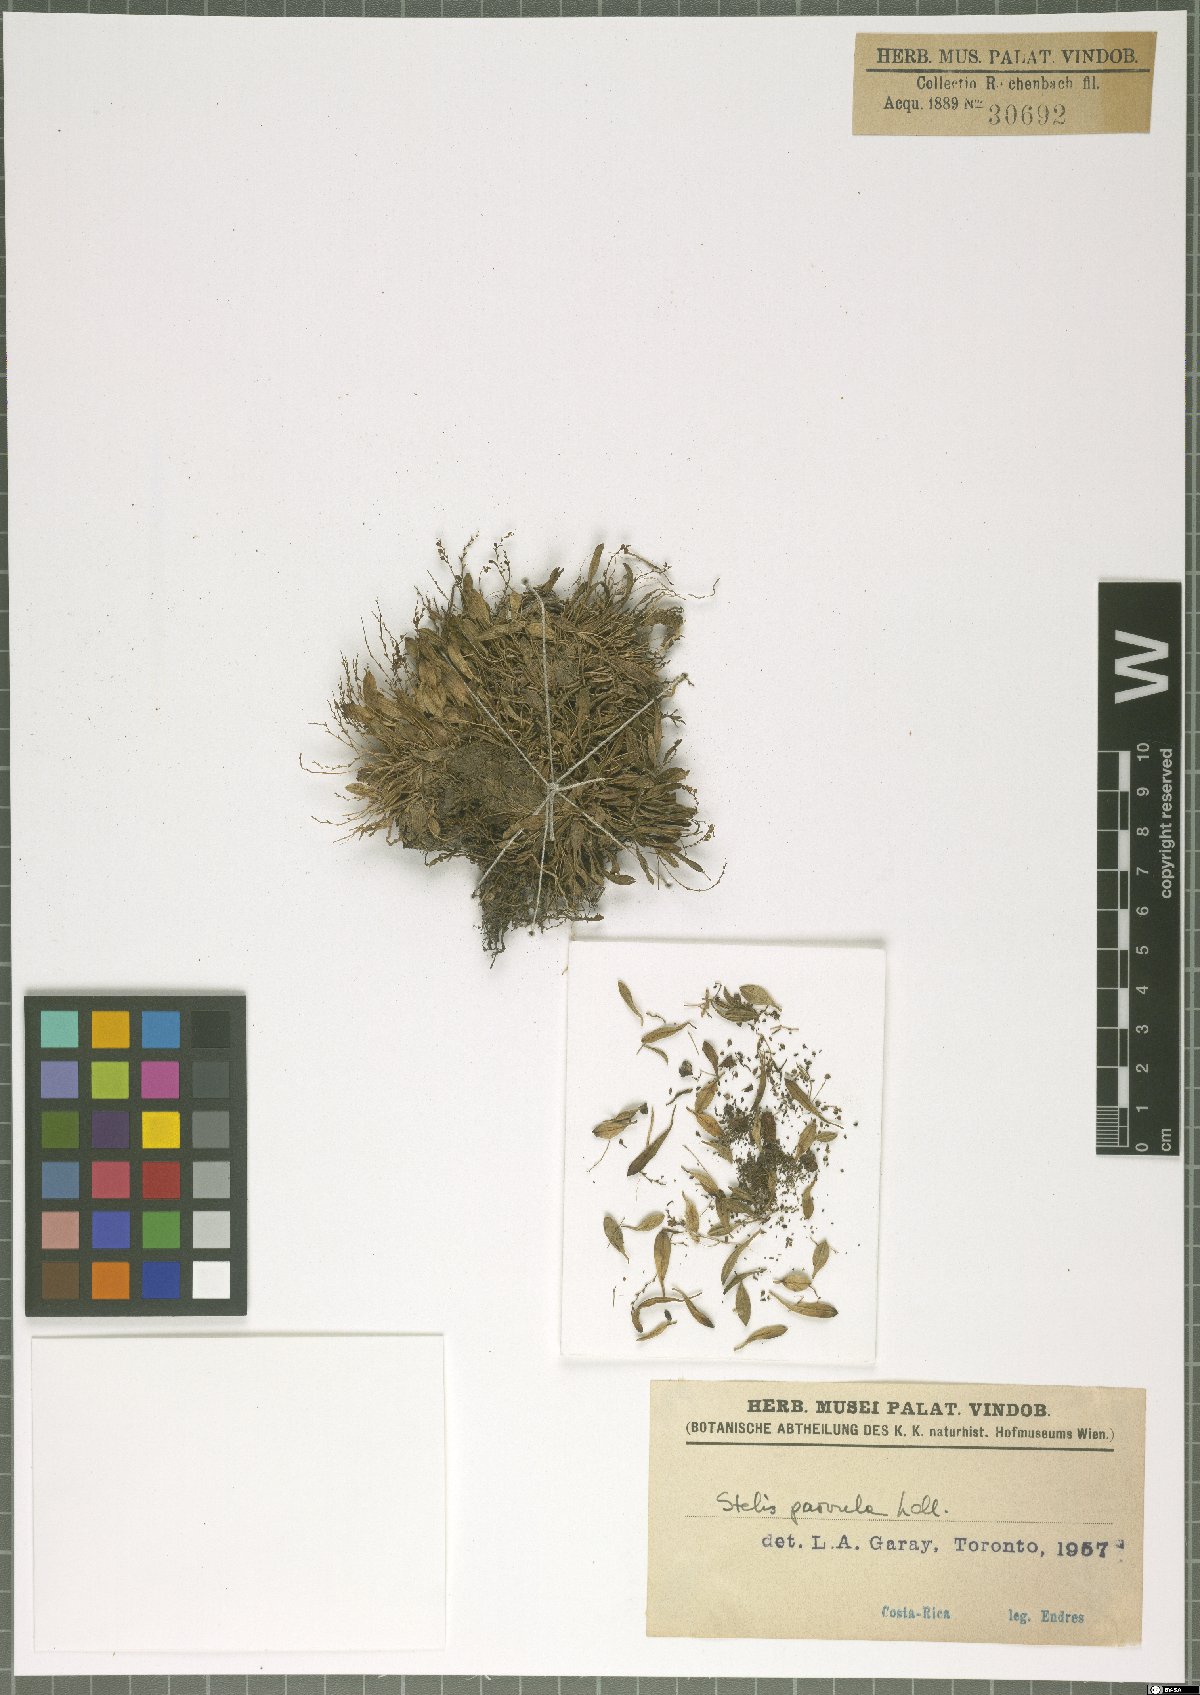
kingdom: Plantae
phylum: Tracheophyta
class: Liliopsida
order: Asparagales
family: Orchidaceae
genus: Stelis
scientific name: Stelis parvula
